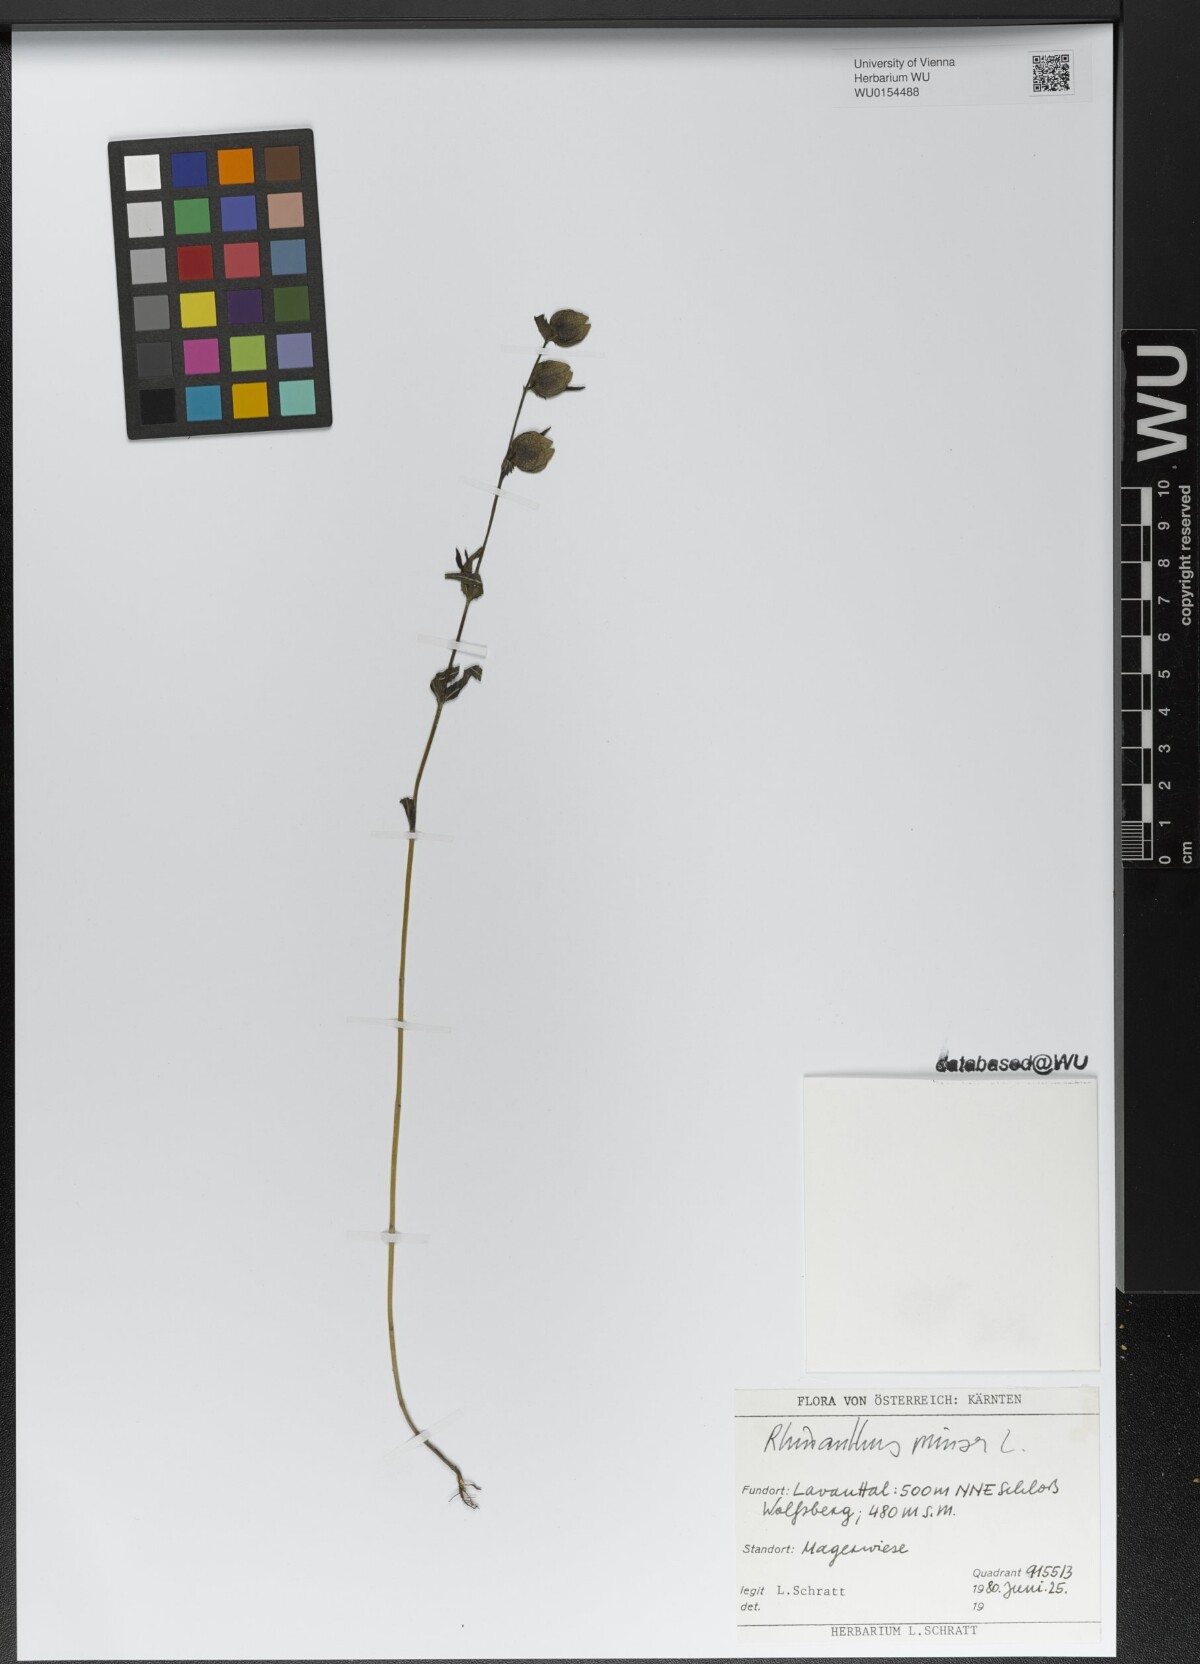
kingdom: Plantae
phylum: Tracheophyta
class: Magnoliopsida
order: Lamiales
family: Orobanchaceae
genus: Rhinanthus
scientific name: Rhinanthus minor
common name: Yellow-rattle
